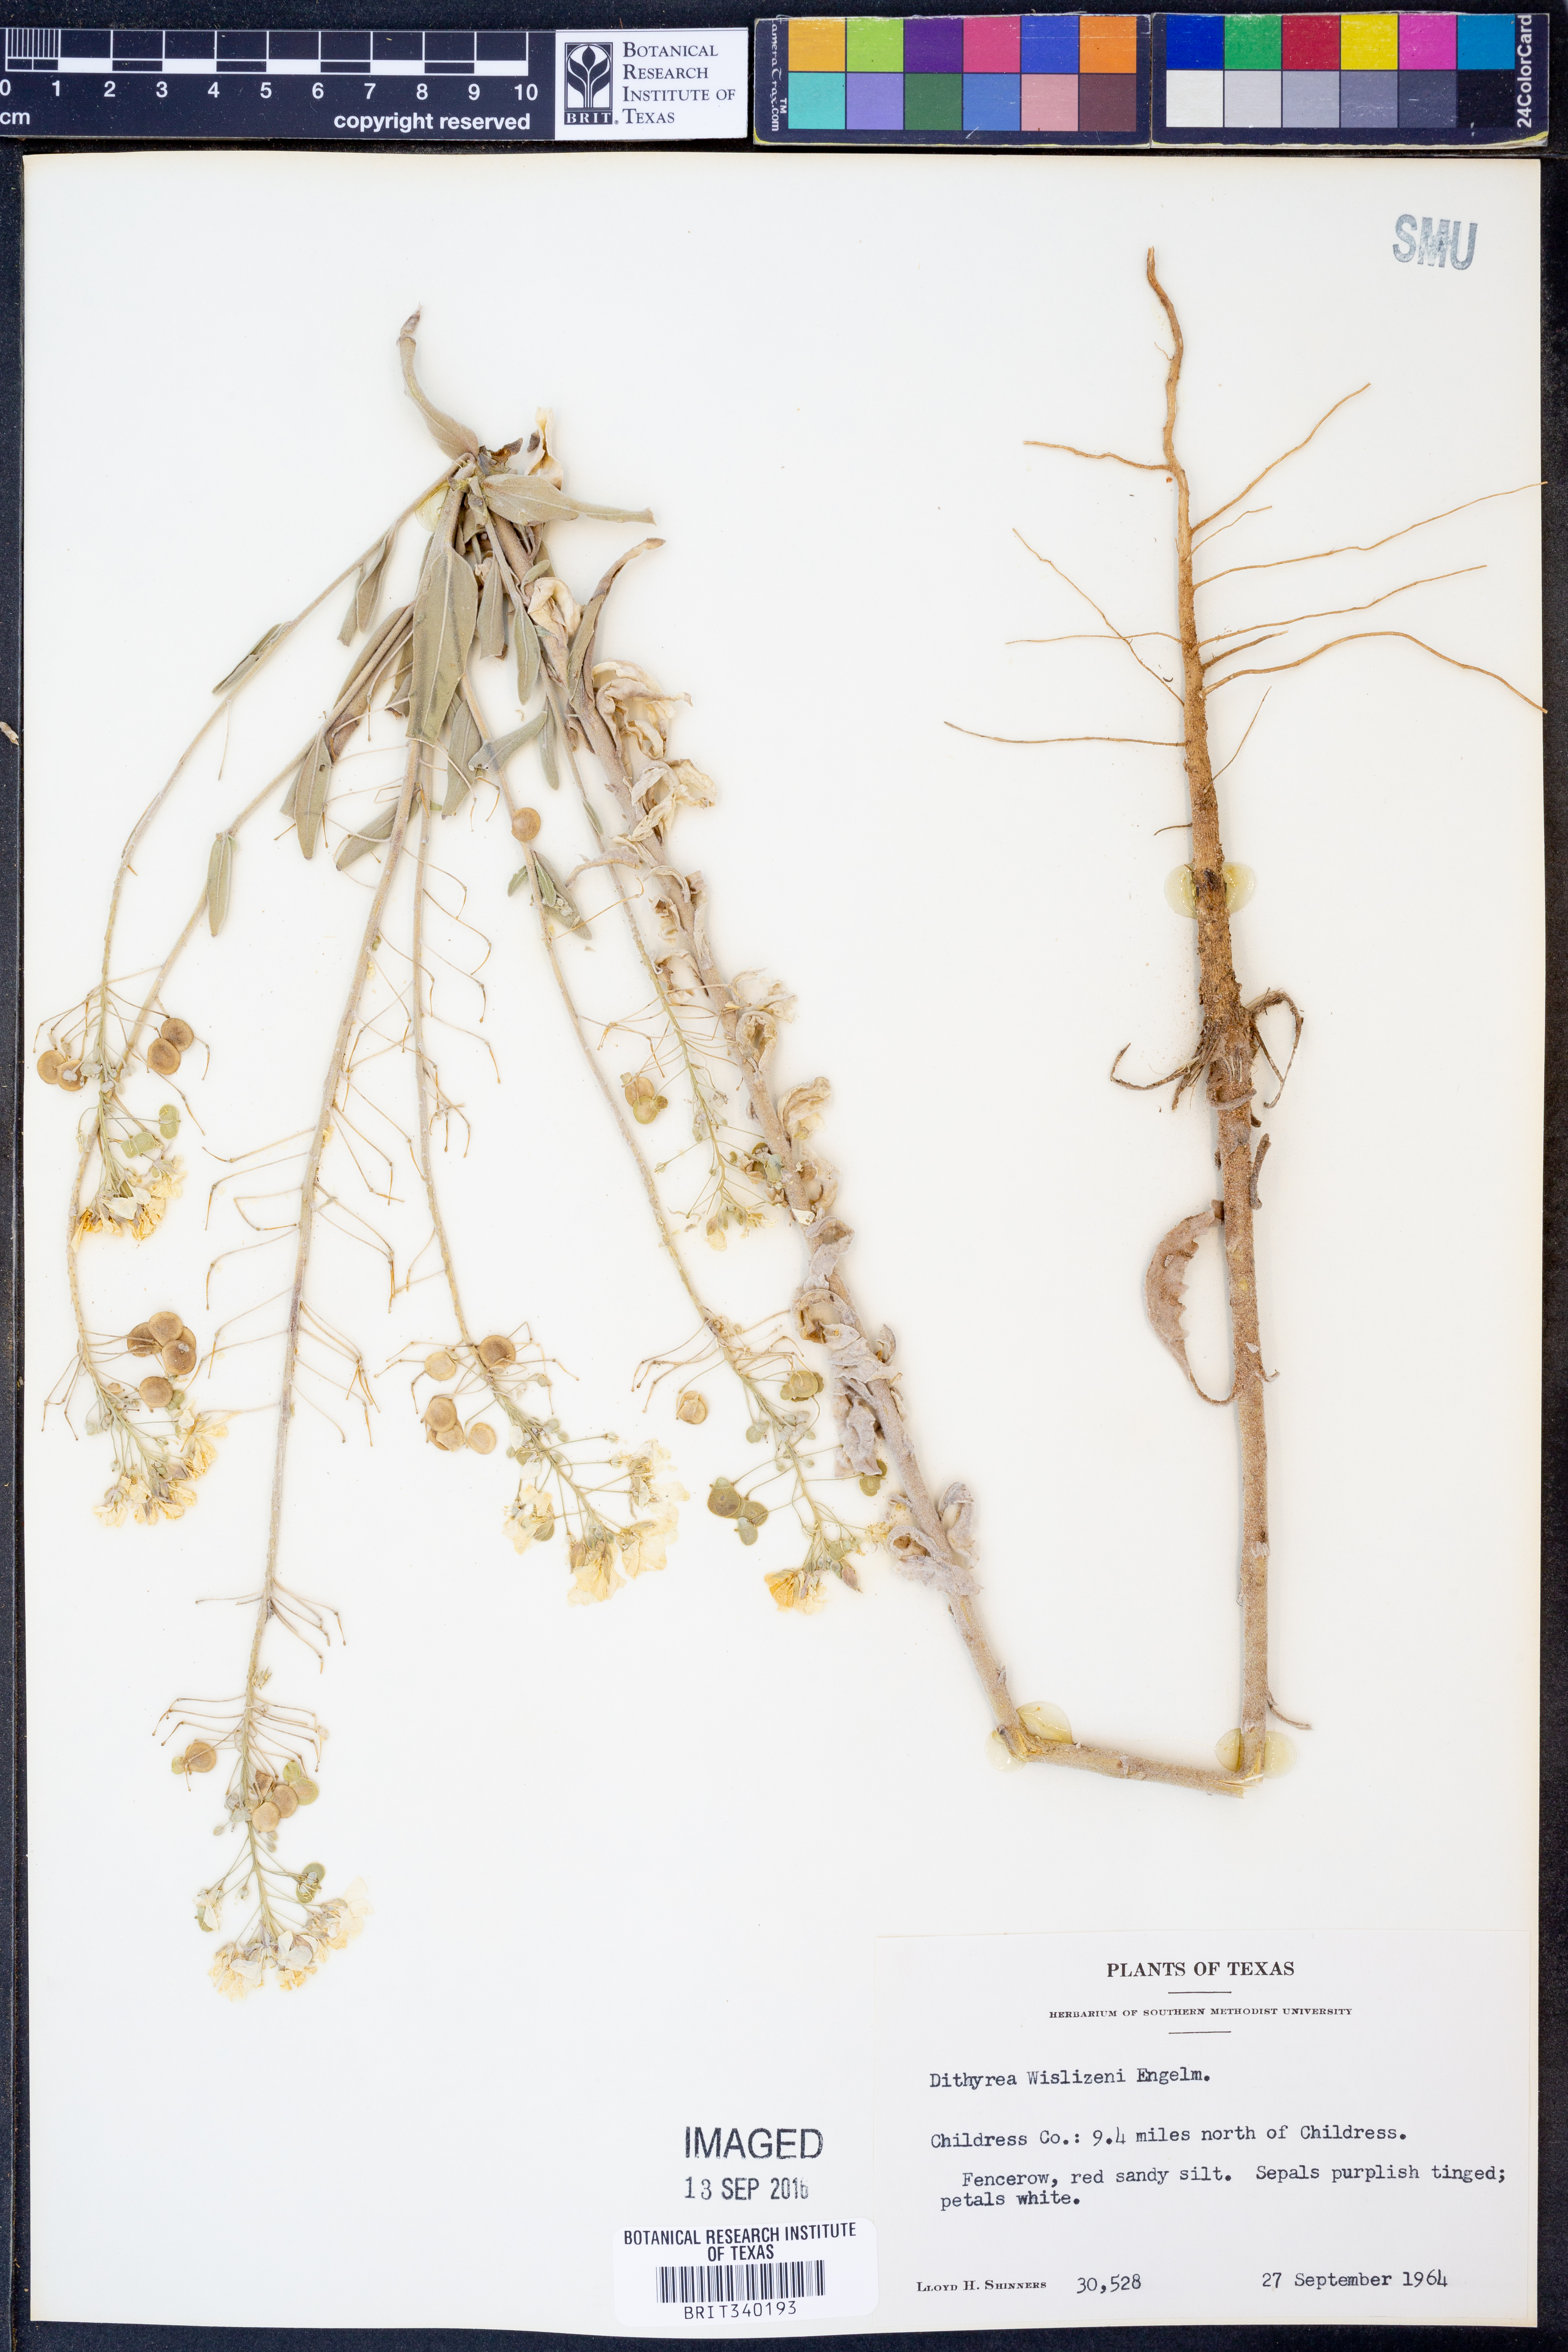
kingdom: Plantae
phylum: Tracheophyta
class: Magnoliopsida
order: Brassicales
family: Brassicaceae
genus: Dimorphocarpa
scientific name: Dimorphocarpa wislizenii
